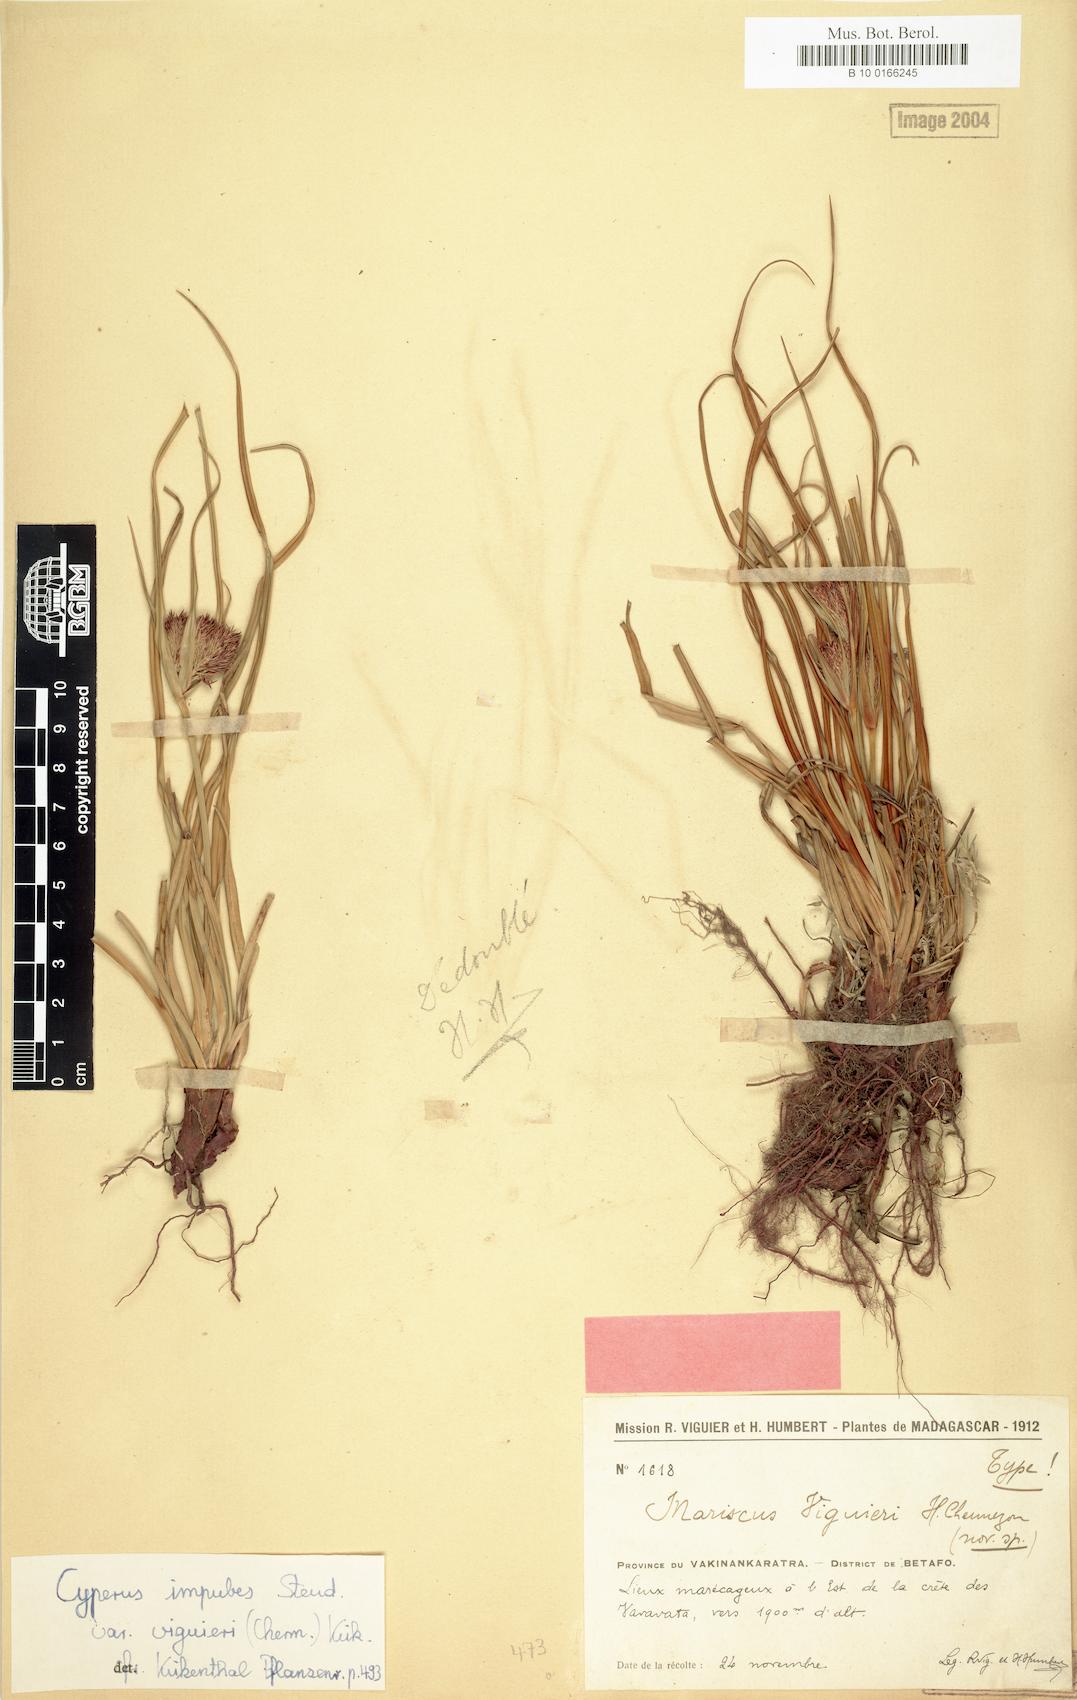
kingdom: Plantae
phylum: Tracheophyta
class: Liliopsida
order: Poales
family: Cyperaceae
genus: Cyperus
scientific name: Cyperus impubes
